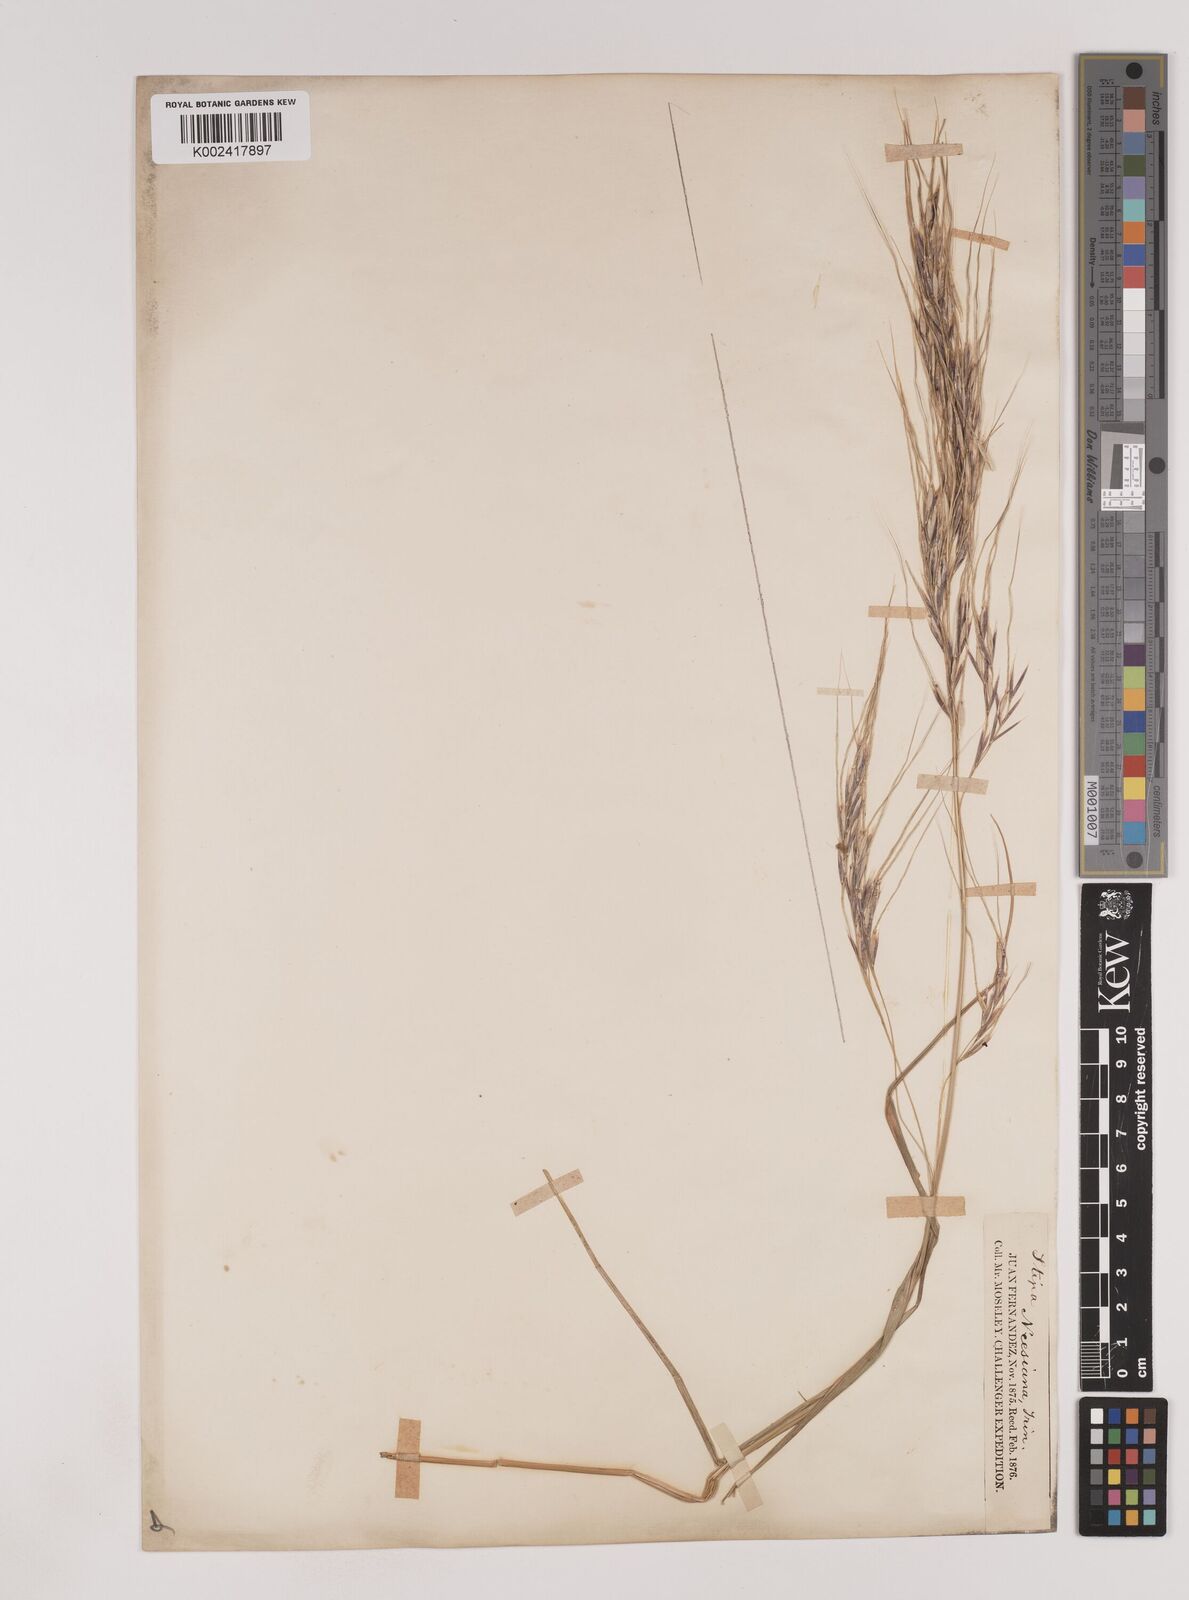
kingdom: Plantae
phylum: Tracheophyta
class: Liliopsida
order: Poales
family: Poaceae
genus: Nassella
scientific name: Nassella neesiana
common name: American needle-grass
